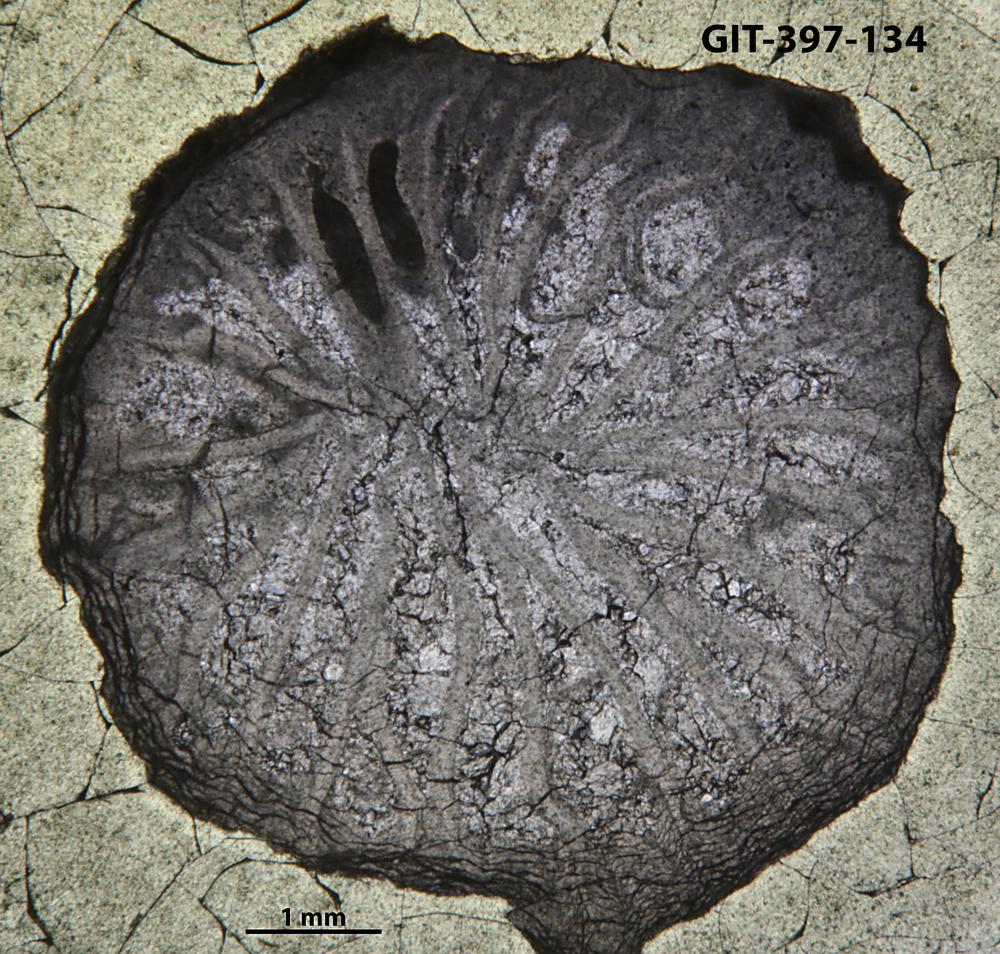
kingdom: Animalia
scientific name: Animalia
